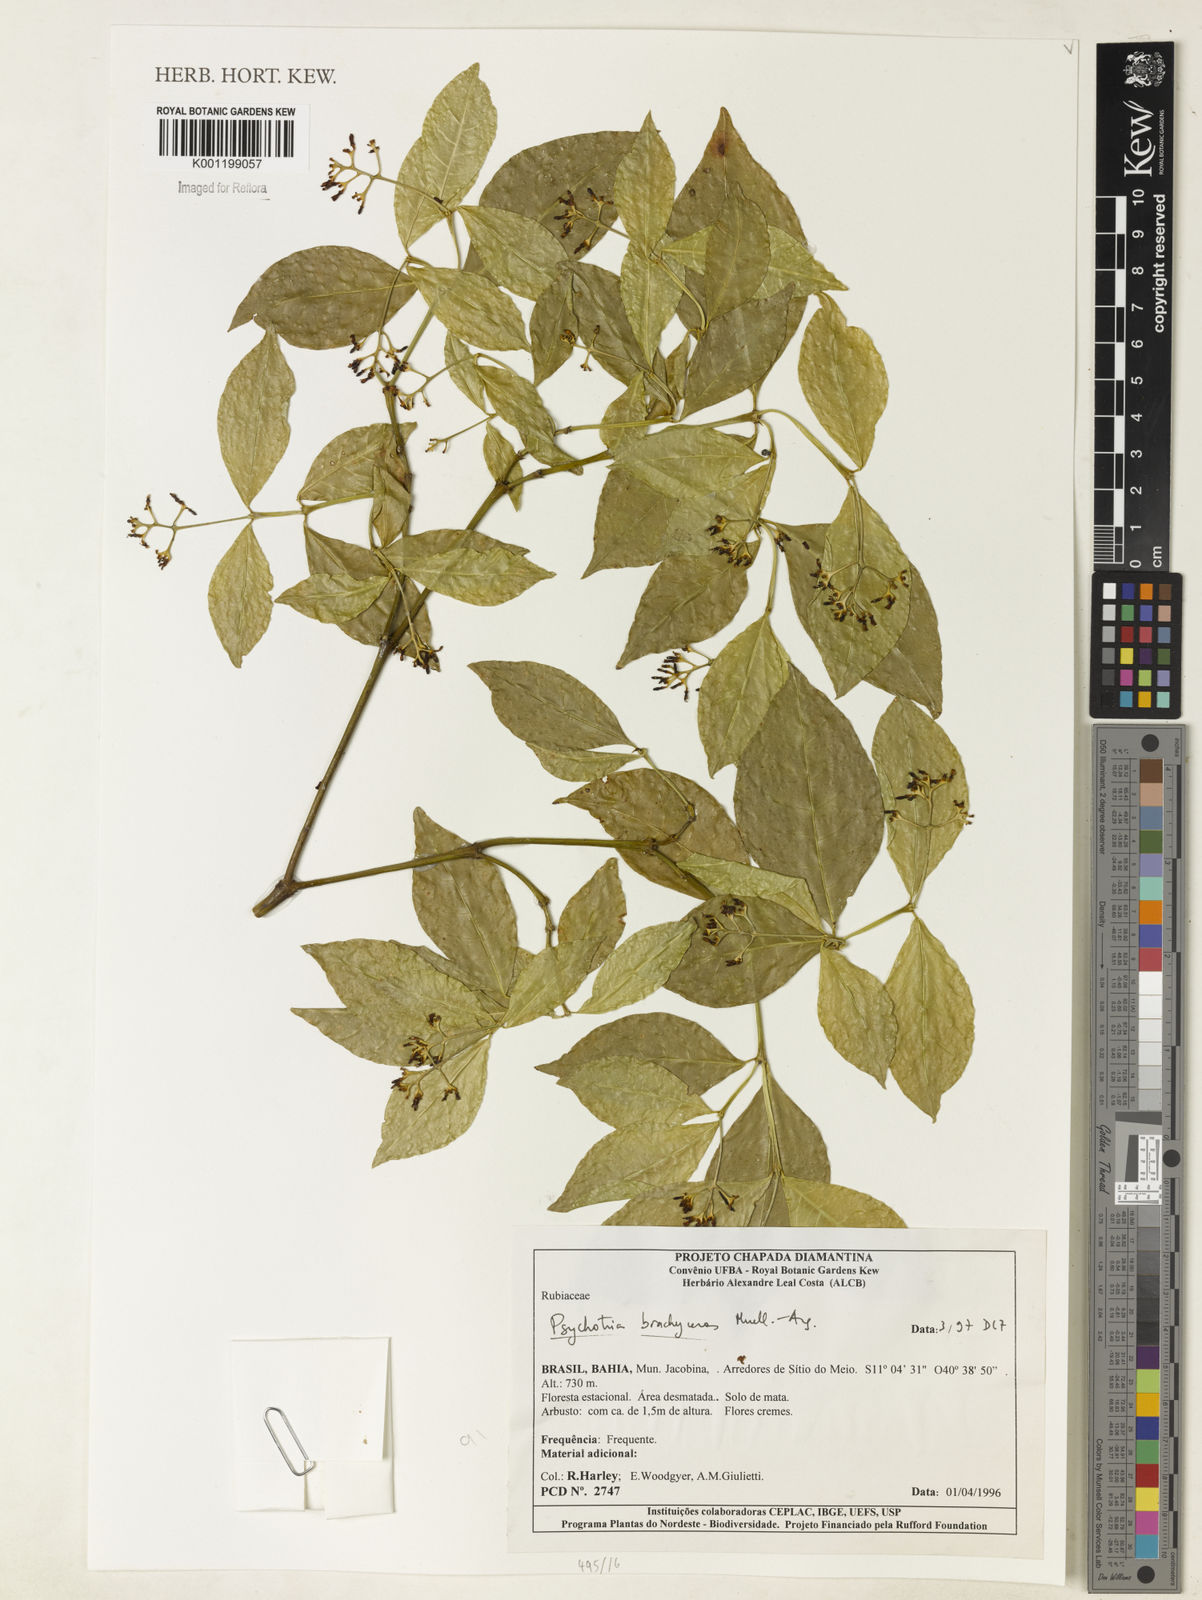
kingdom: Plantae
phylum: Tracheophyta
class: Magnoliopsida
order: Gentianales
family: Rubiaceae
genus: Psychotria
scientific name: Psychotria
